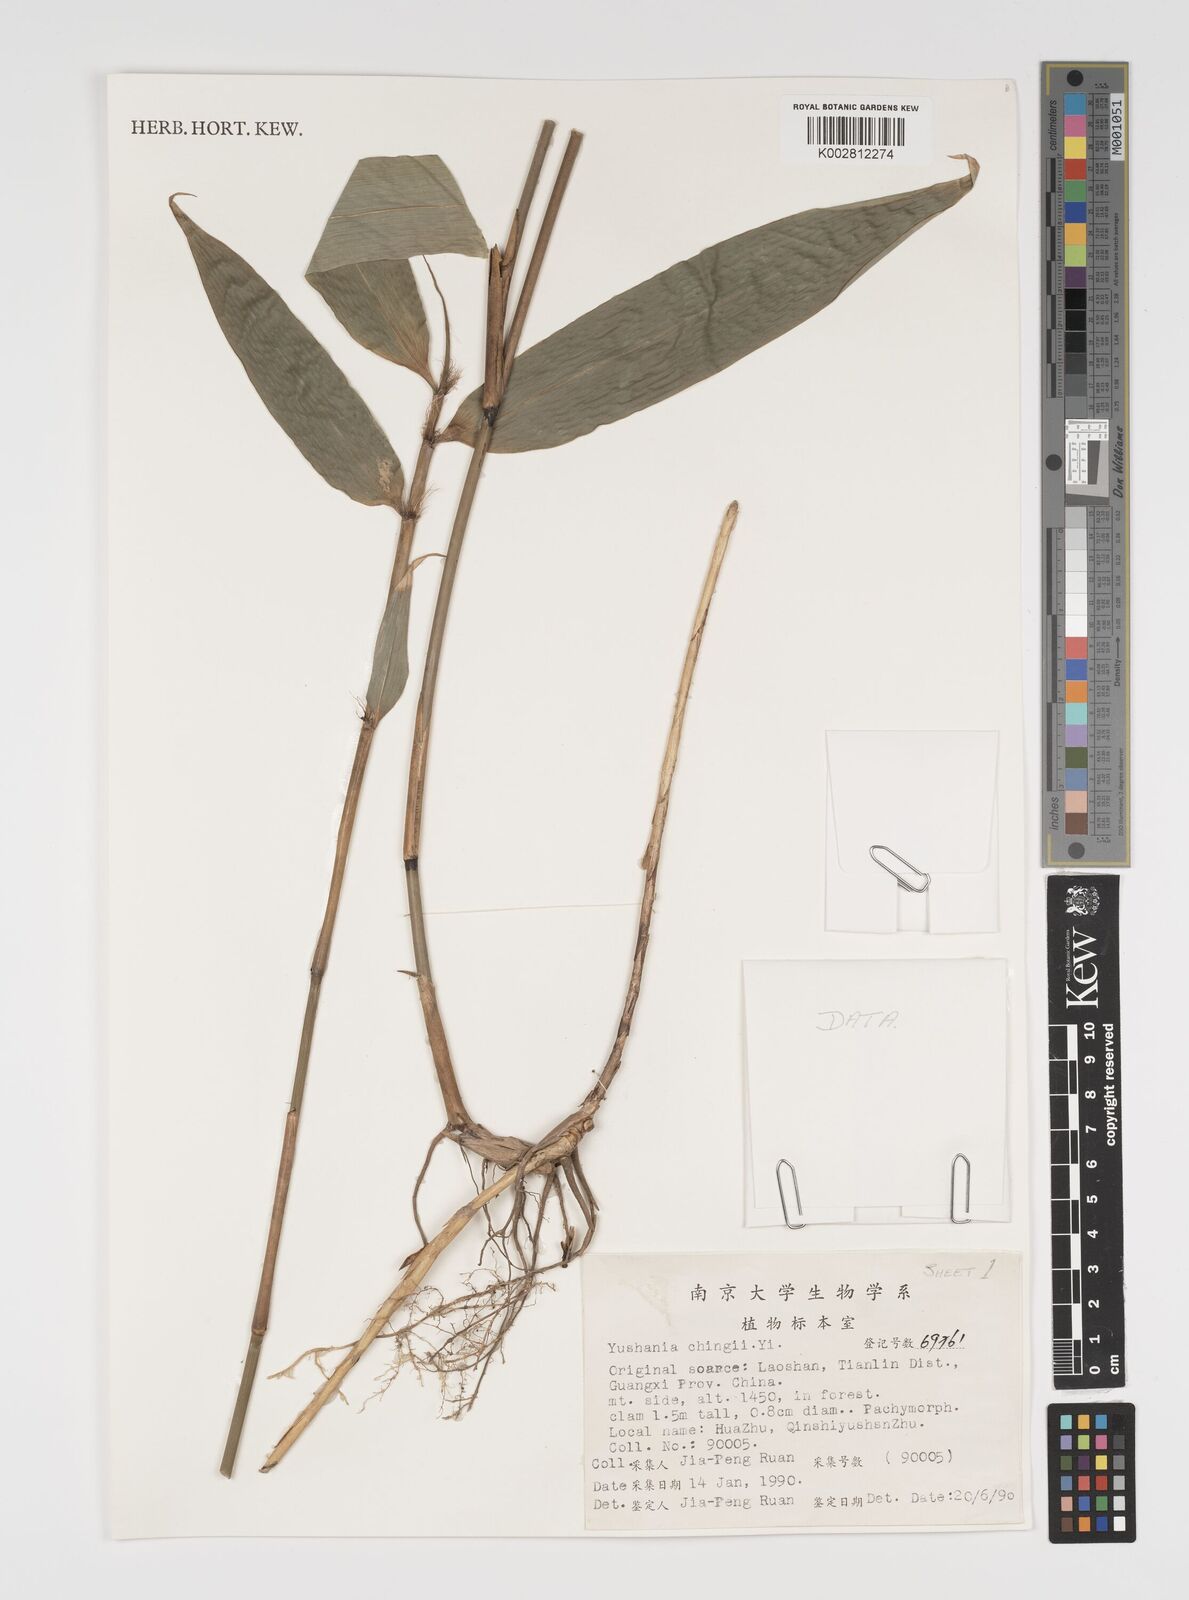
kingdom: Plantae
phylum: Tracheophyta
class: Liliopsida
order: Poales
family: Poaceae
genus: Yushania
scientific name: Yushania brevipaniculata
